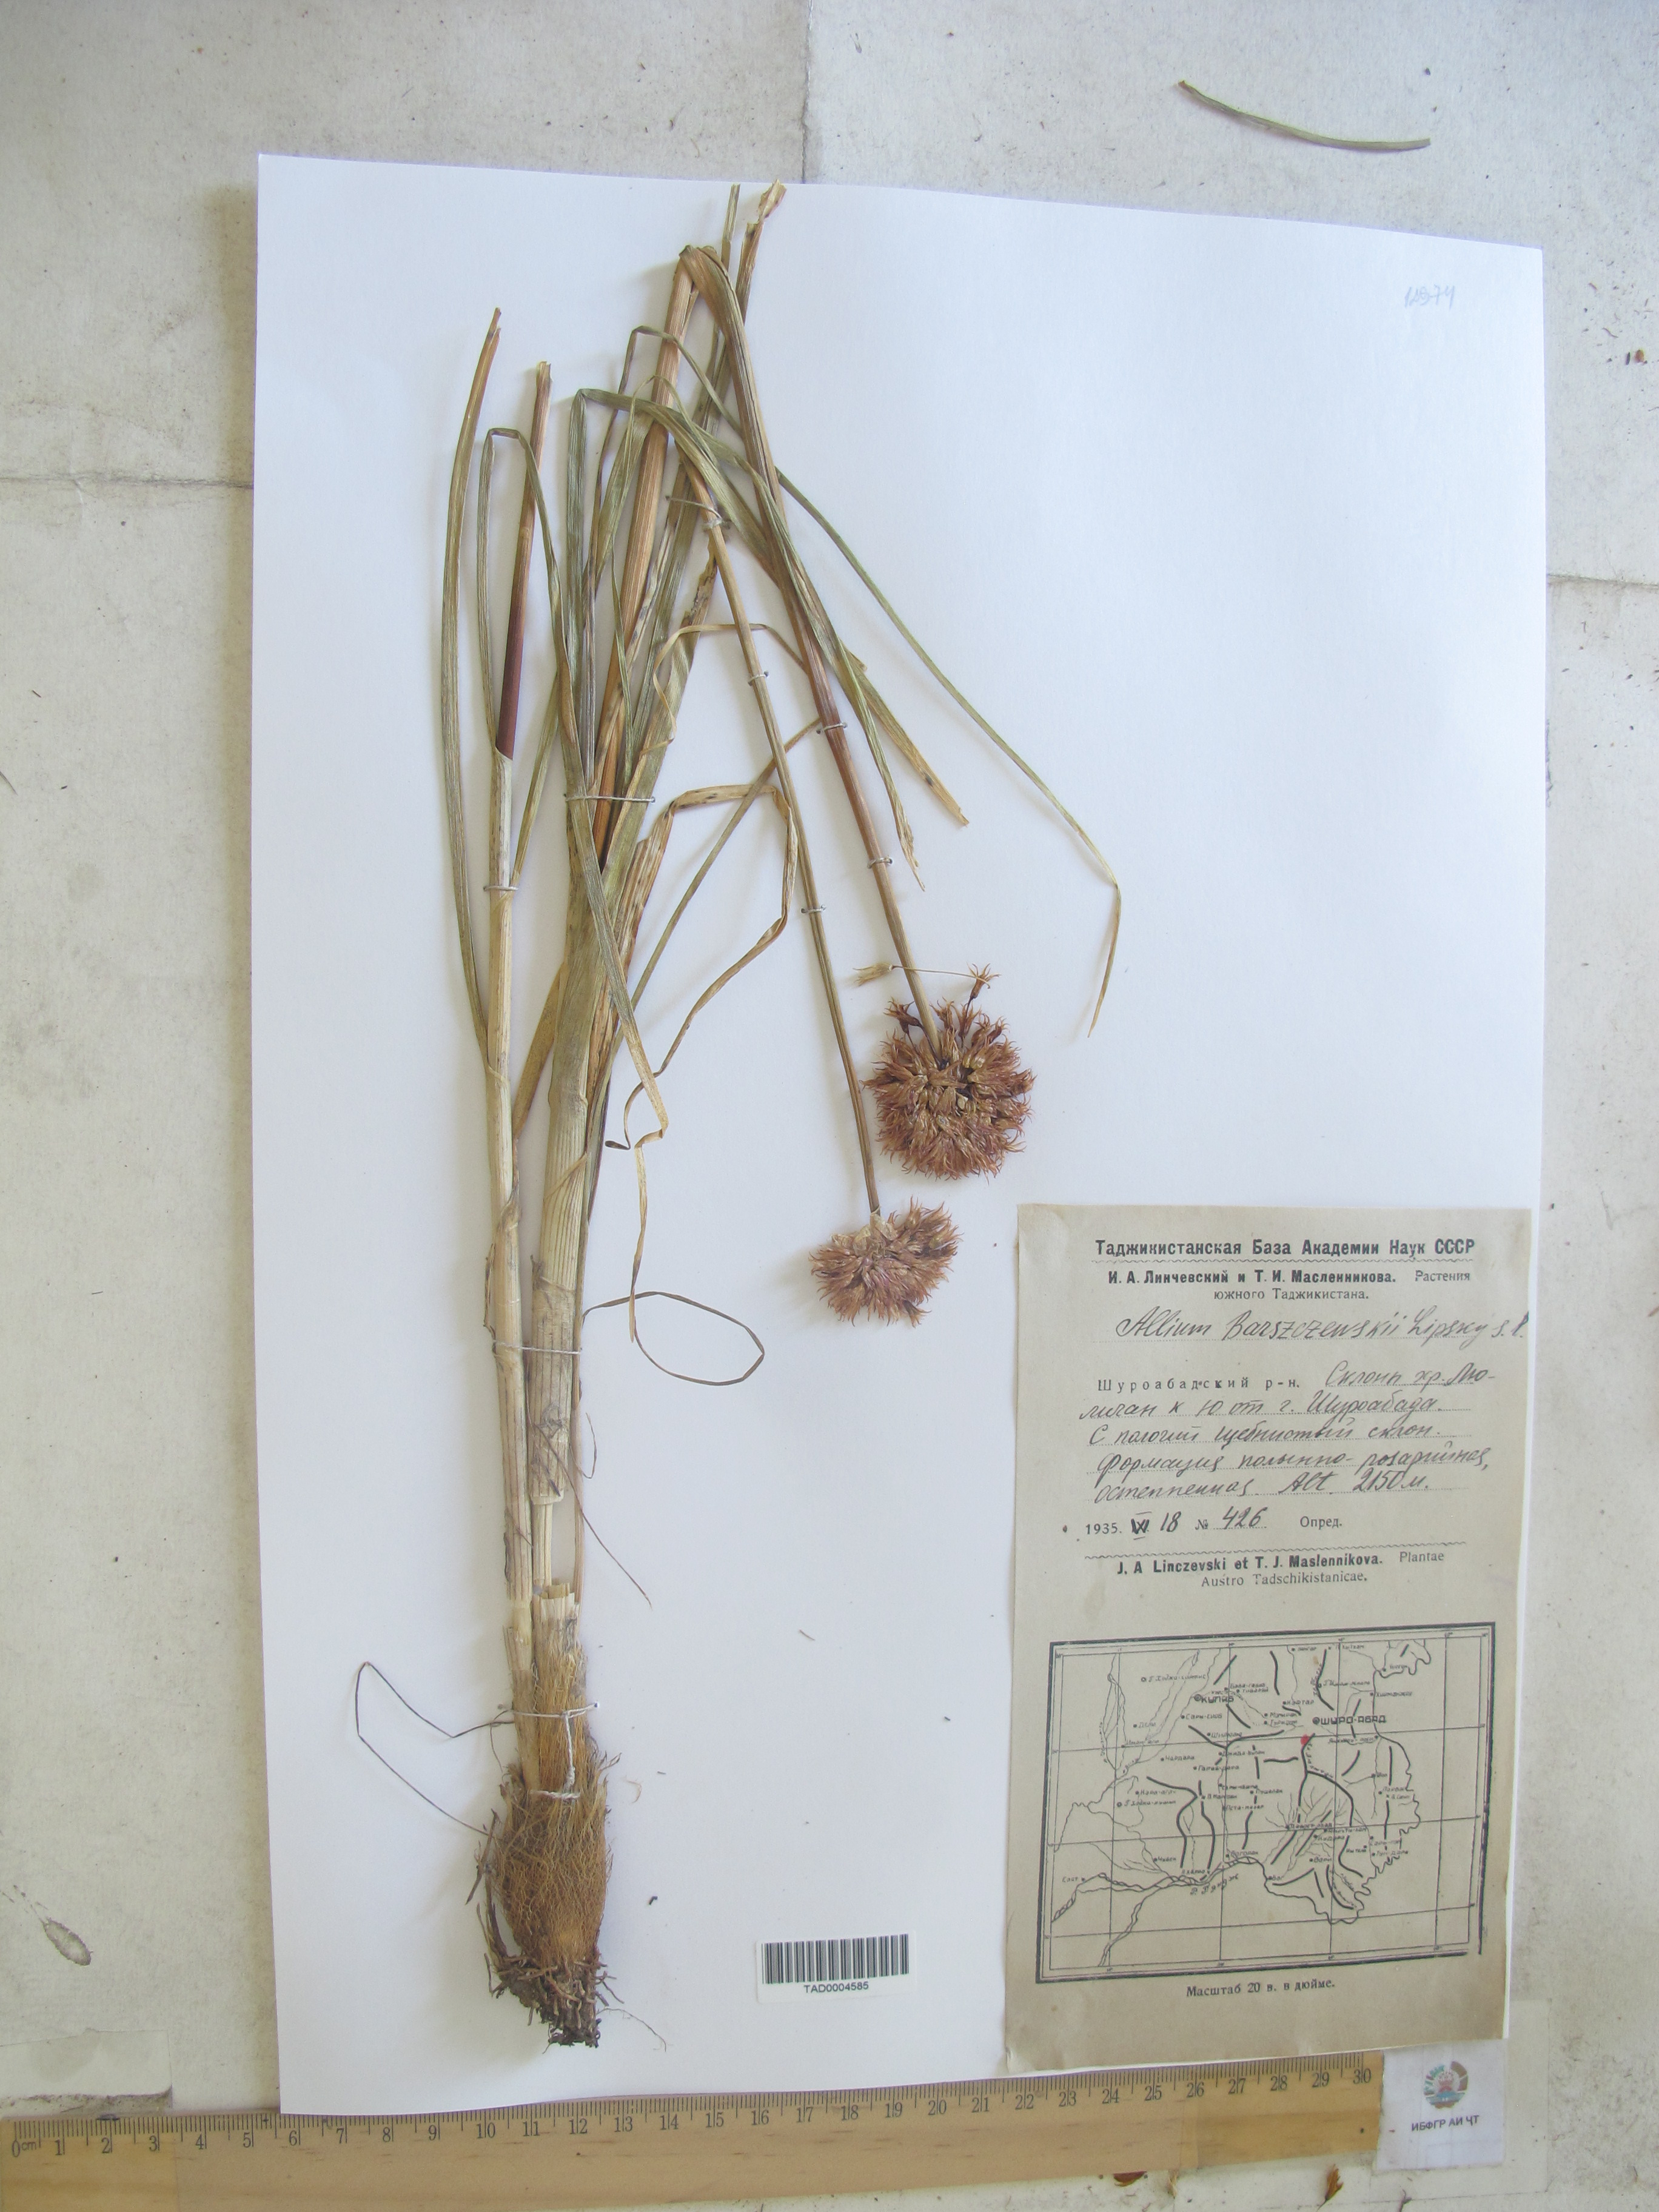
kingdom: Plantae
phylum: Tracheophyta
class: Liliopsida
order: Asparagales
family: Amaryllidaceae
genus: Allium
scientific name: Allium barsczewskii
